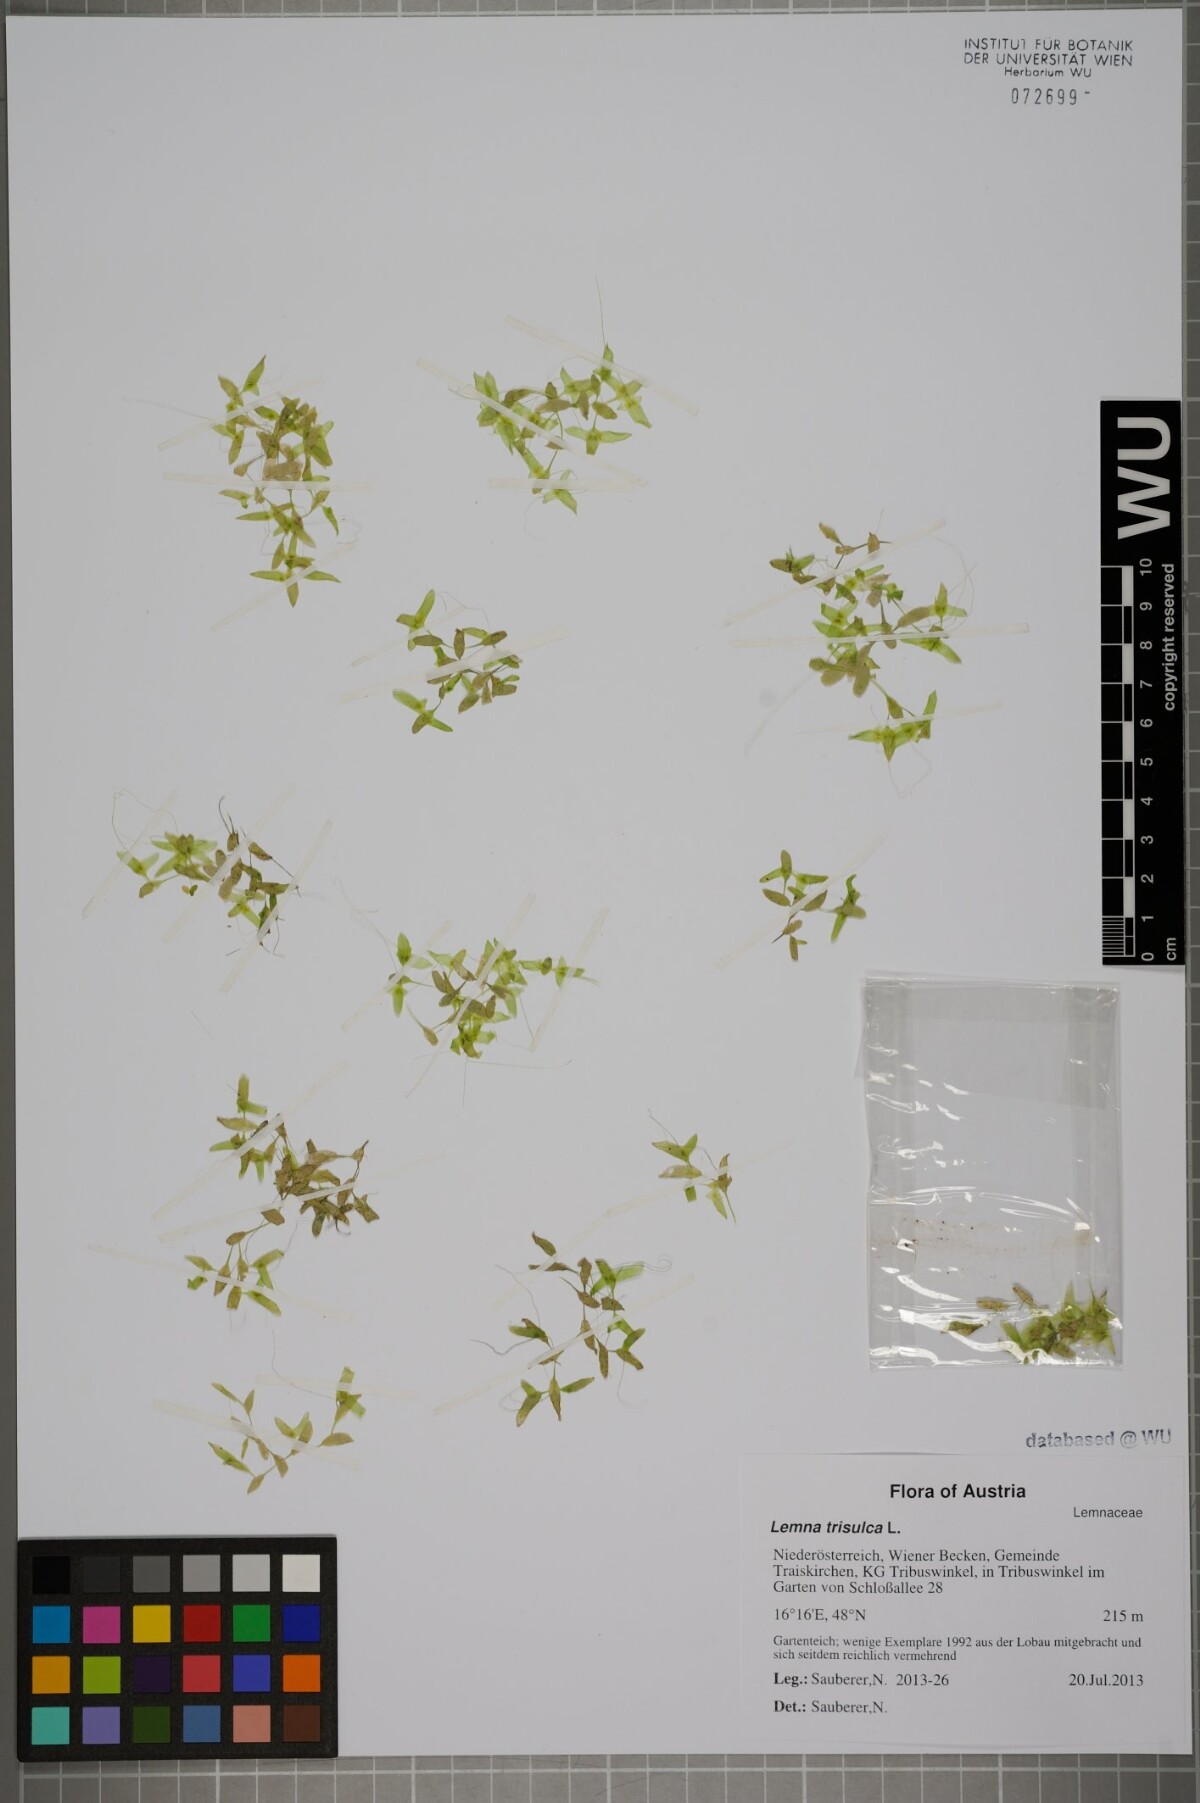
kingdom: Plantae
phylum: Tracheophyta
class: Liliopsida
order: Alismatales
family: Araceae
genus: Lemna
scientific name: Lemna trisulca
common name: Ivy-leaved duckweed
